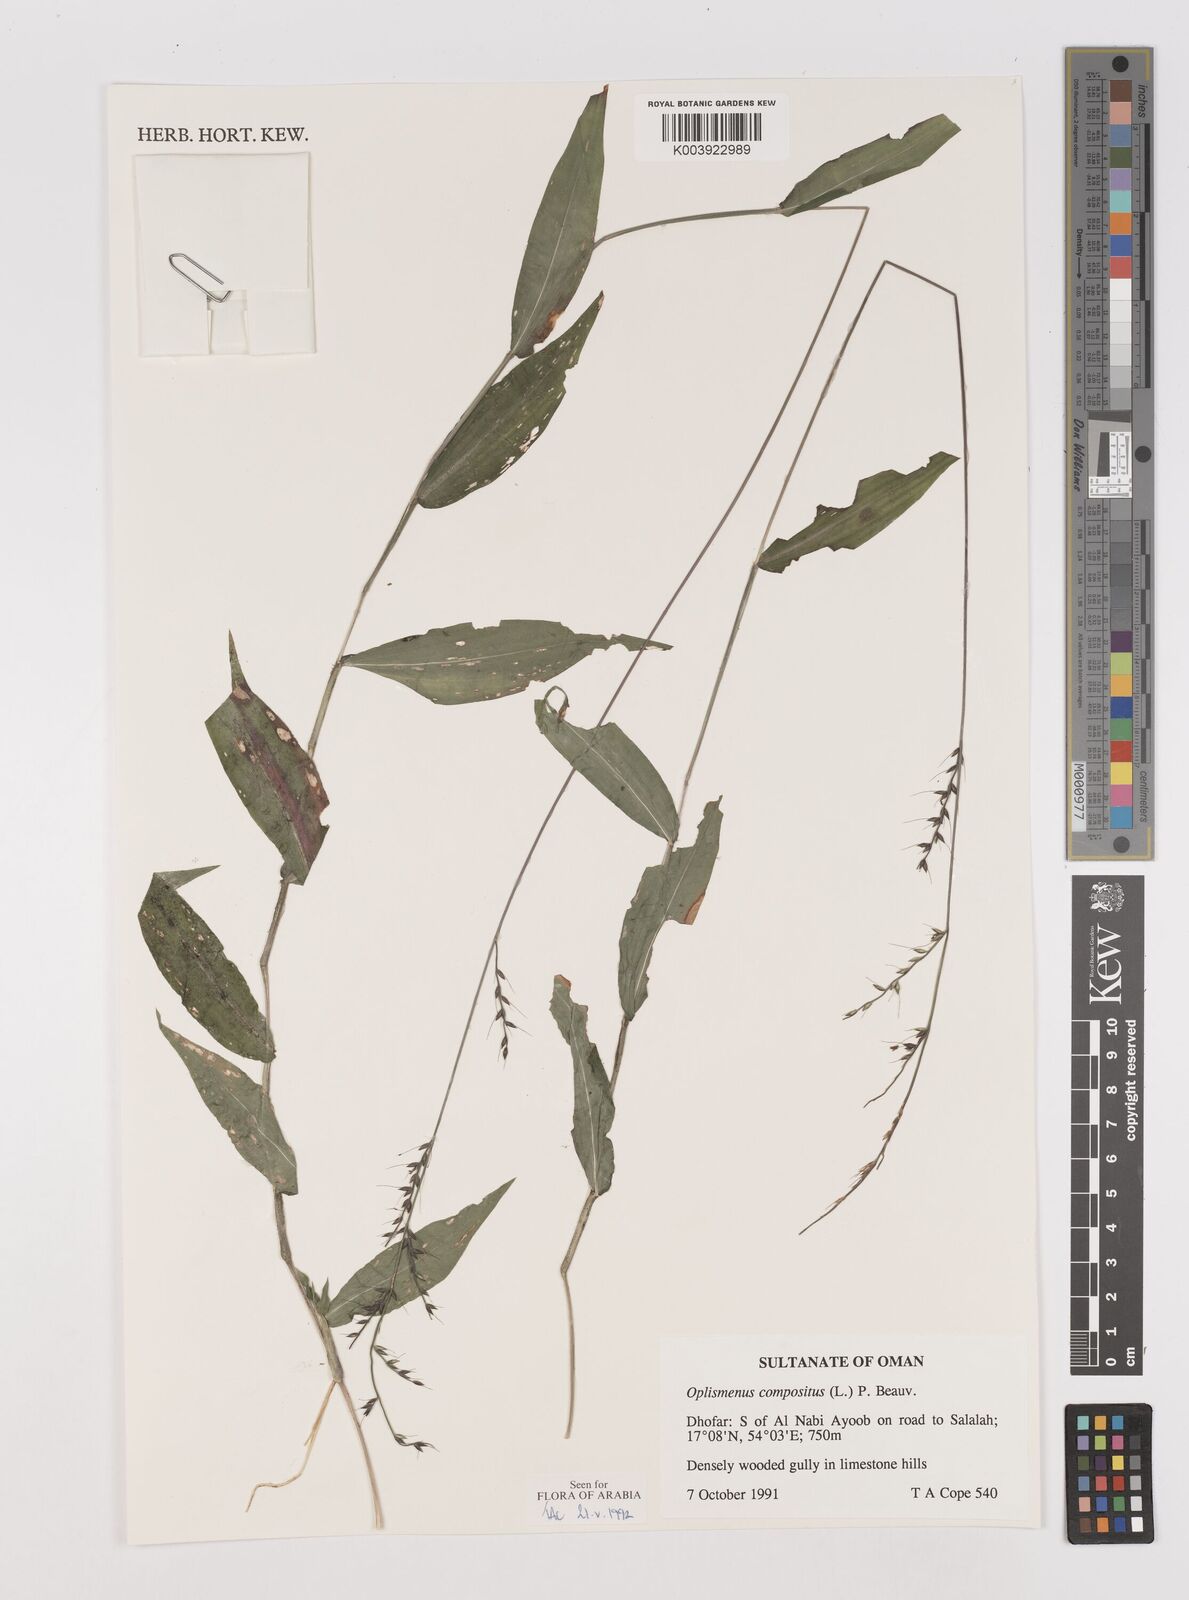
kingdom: Plantae
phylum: Tracheophyta
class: Liliopsida
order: Poales
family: Poaceae
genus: Oplismenus
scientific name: Oplismenus compositus
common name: Running mountain grass
